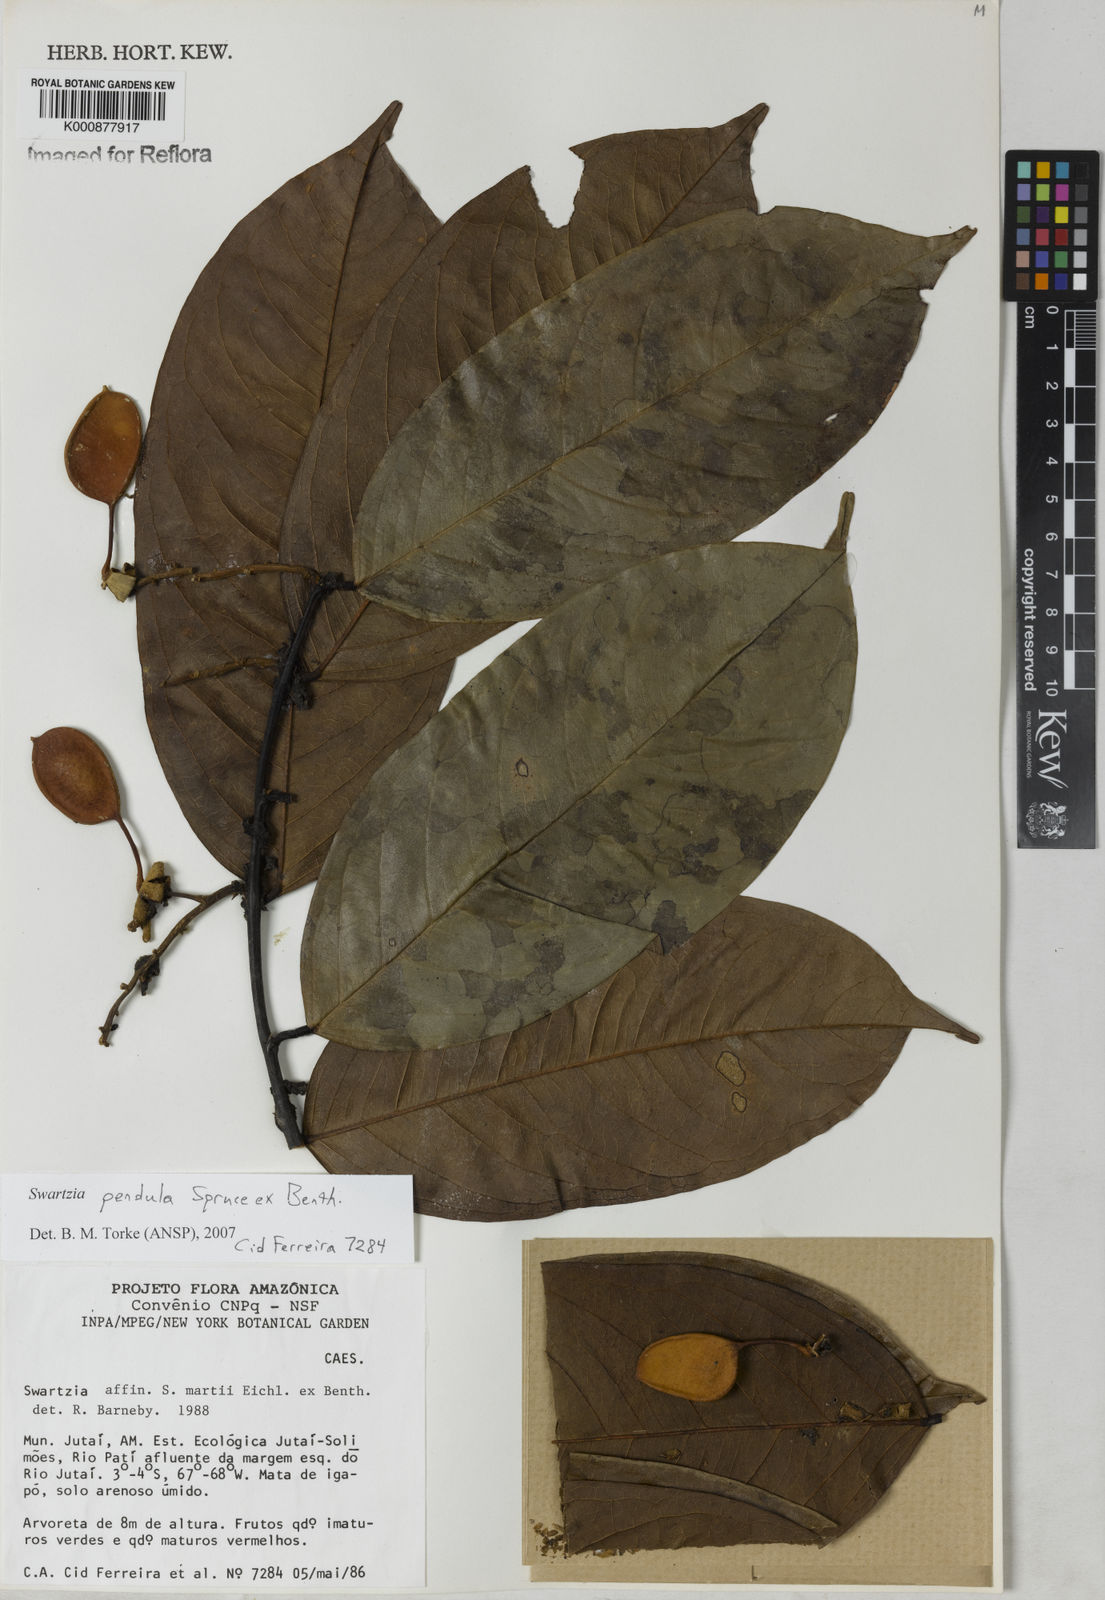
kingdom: Plantae
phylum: Tracheophyta
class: Magnoliopsida
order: Fabales
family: Fabaceae
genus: Swartzia
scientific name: Swartzia pendula
